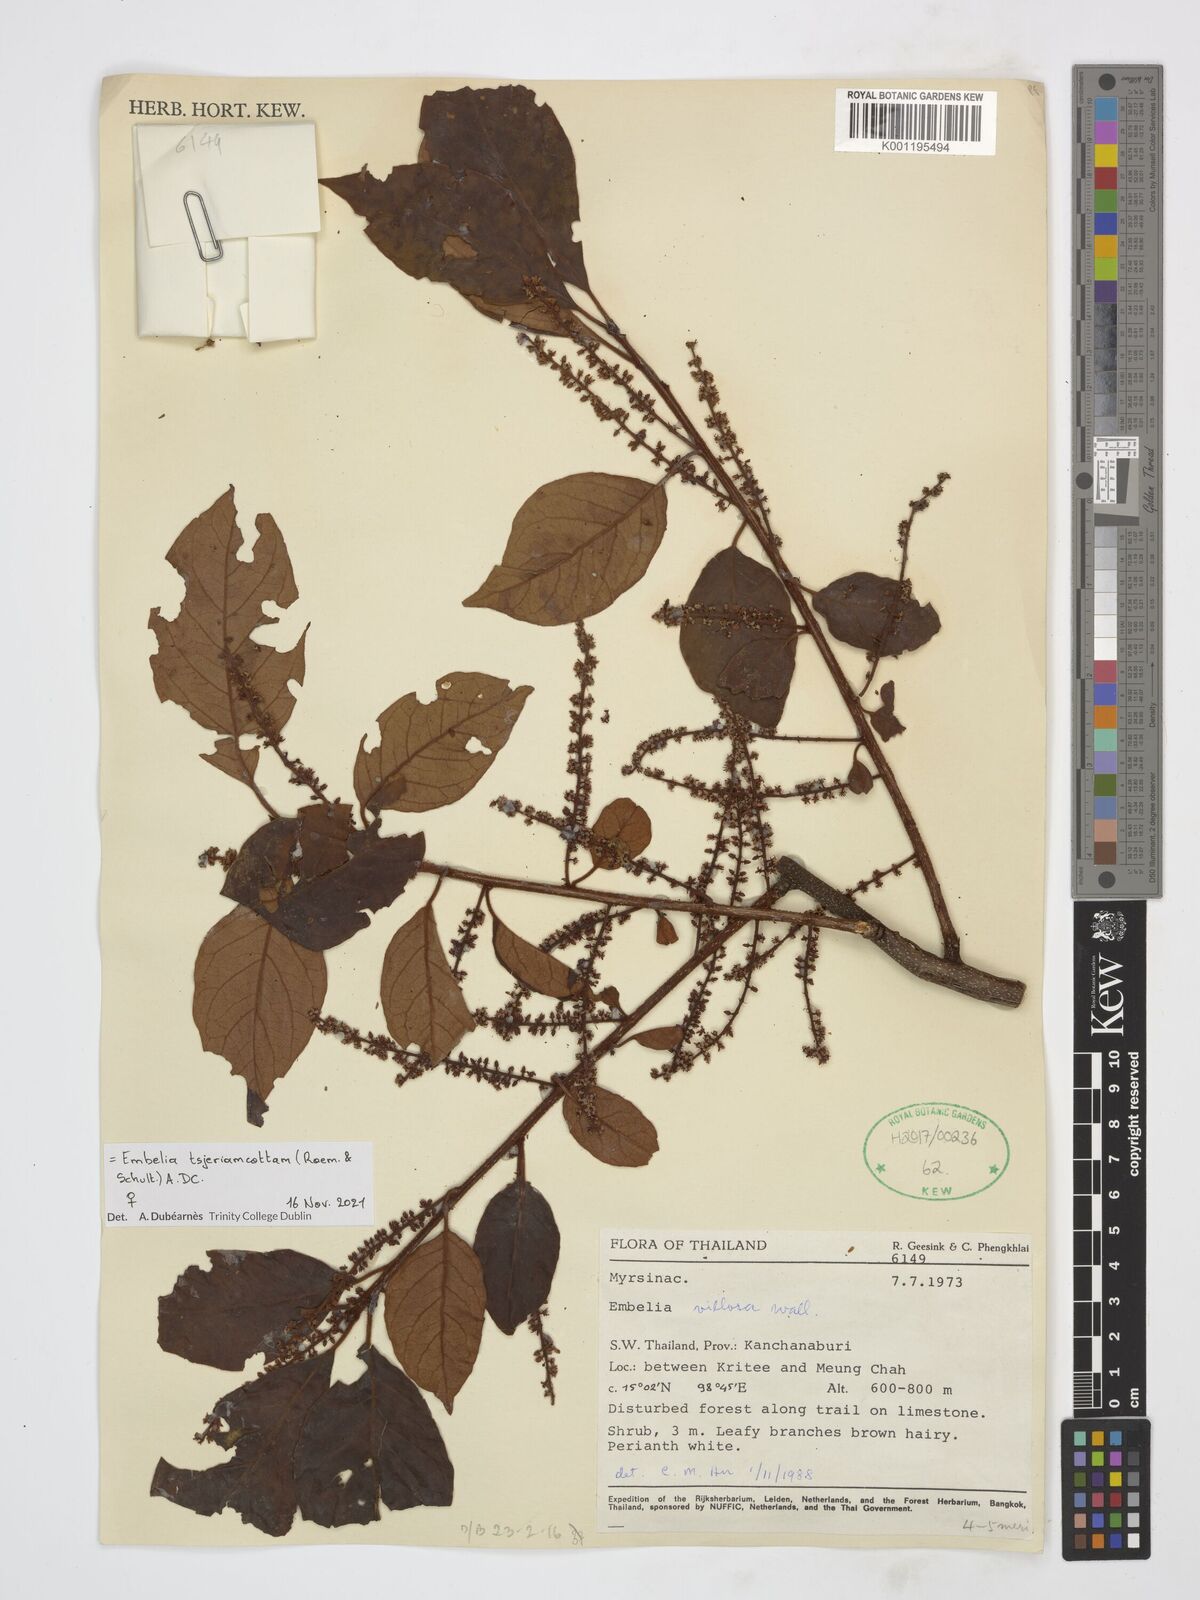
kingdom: Plantae
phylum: Tracheophyta
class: Magnoliopsida
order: Ericales
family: Primulaceae
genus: Embelia
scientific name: Embelia tsjeriam-cottam
